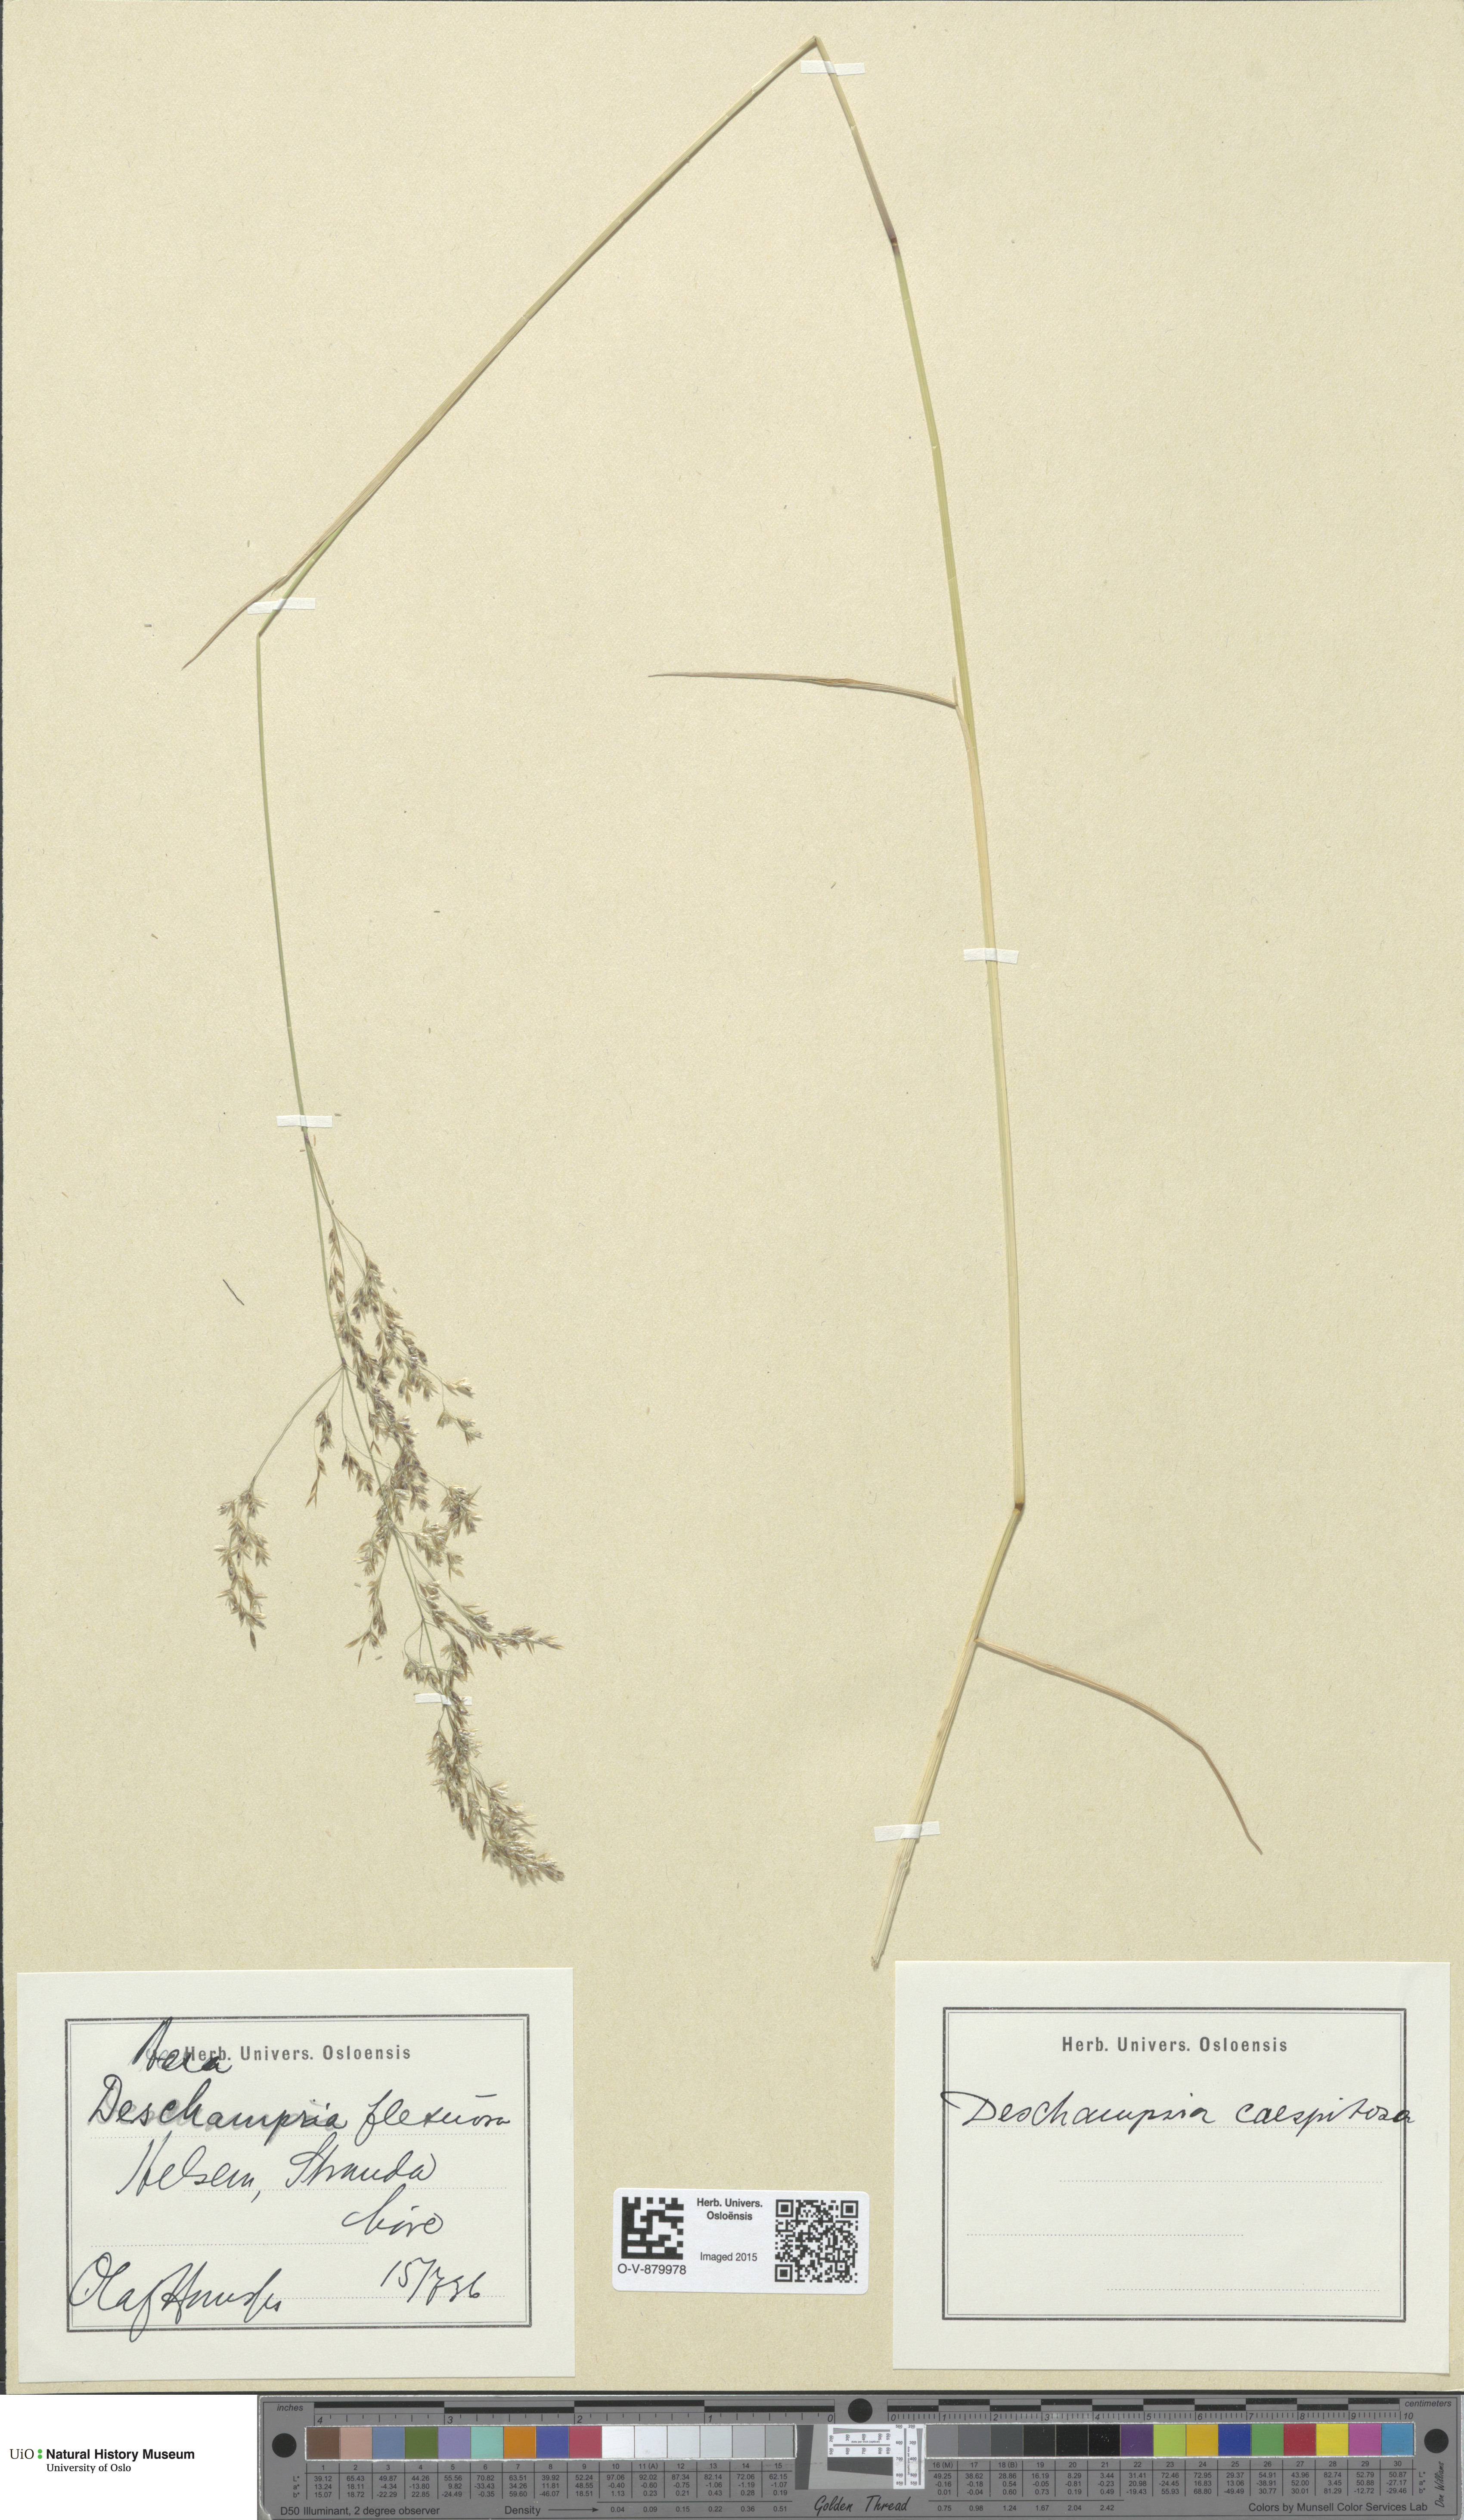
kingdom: Plantae
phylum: Tracheophyta
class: Liliopsida
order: Poales
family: Poaceae
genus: Deschampsia
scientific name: Deschampsia cespitosa
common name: Tufted hair-grass
